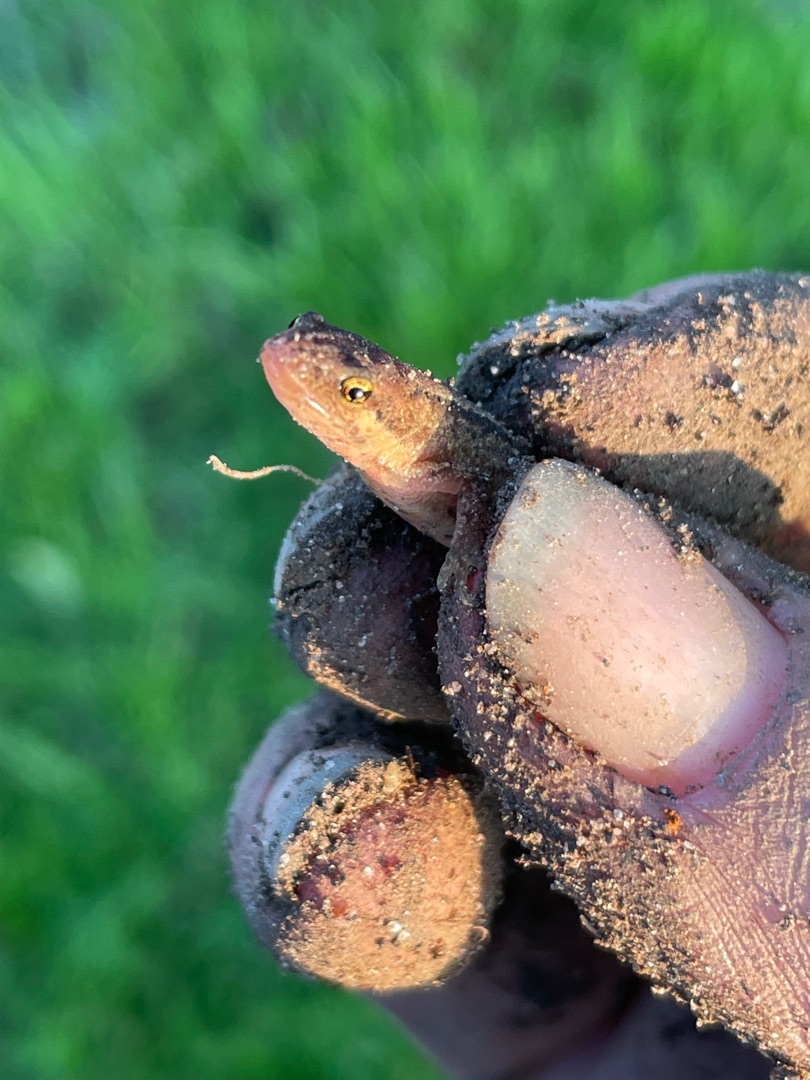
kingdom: Animalia
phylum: Chordata
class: Amphibia
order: Caudata
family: Salamandridae
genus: Lissotriton
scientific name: Lissotriton vulgaris
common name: Lille vandsalamander
